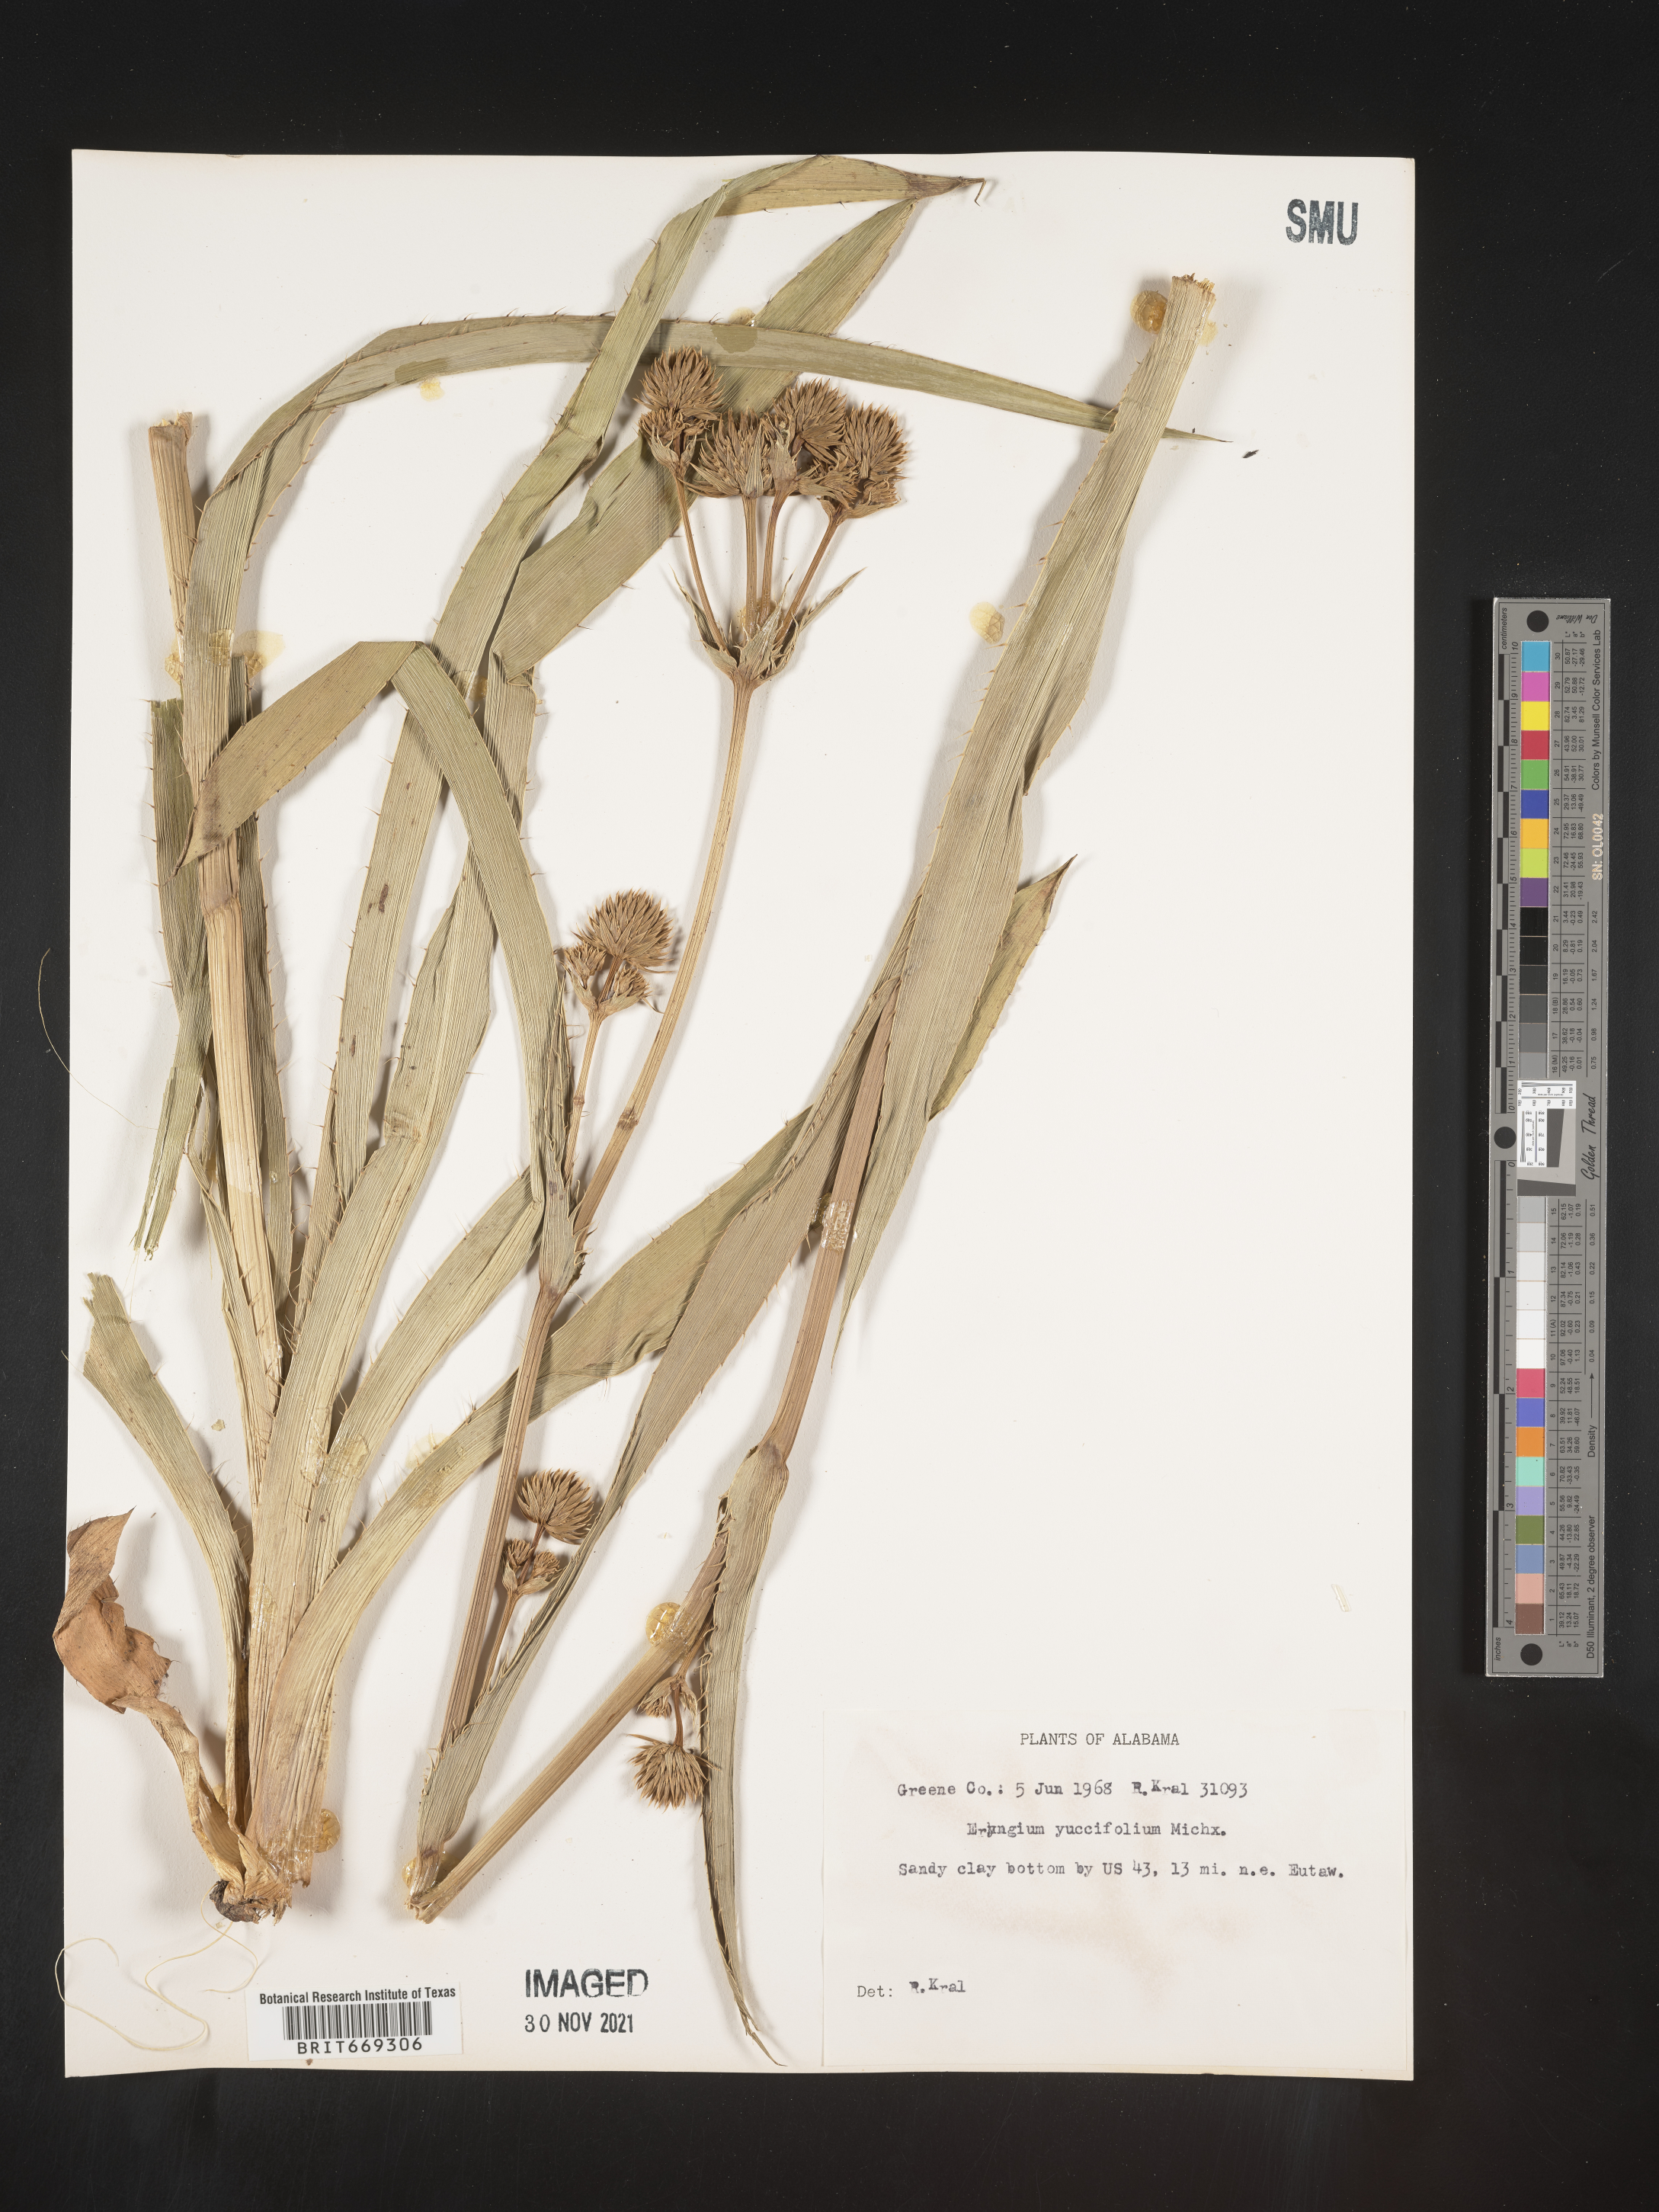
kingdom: Plantae
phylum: Tracheophyta
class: Magnoliopsida
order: Apiales
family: Apiaceae
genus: Eryngium
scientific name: Eryngium yuccifolium
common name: Button eryngo
